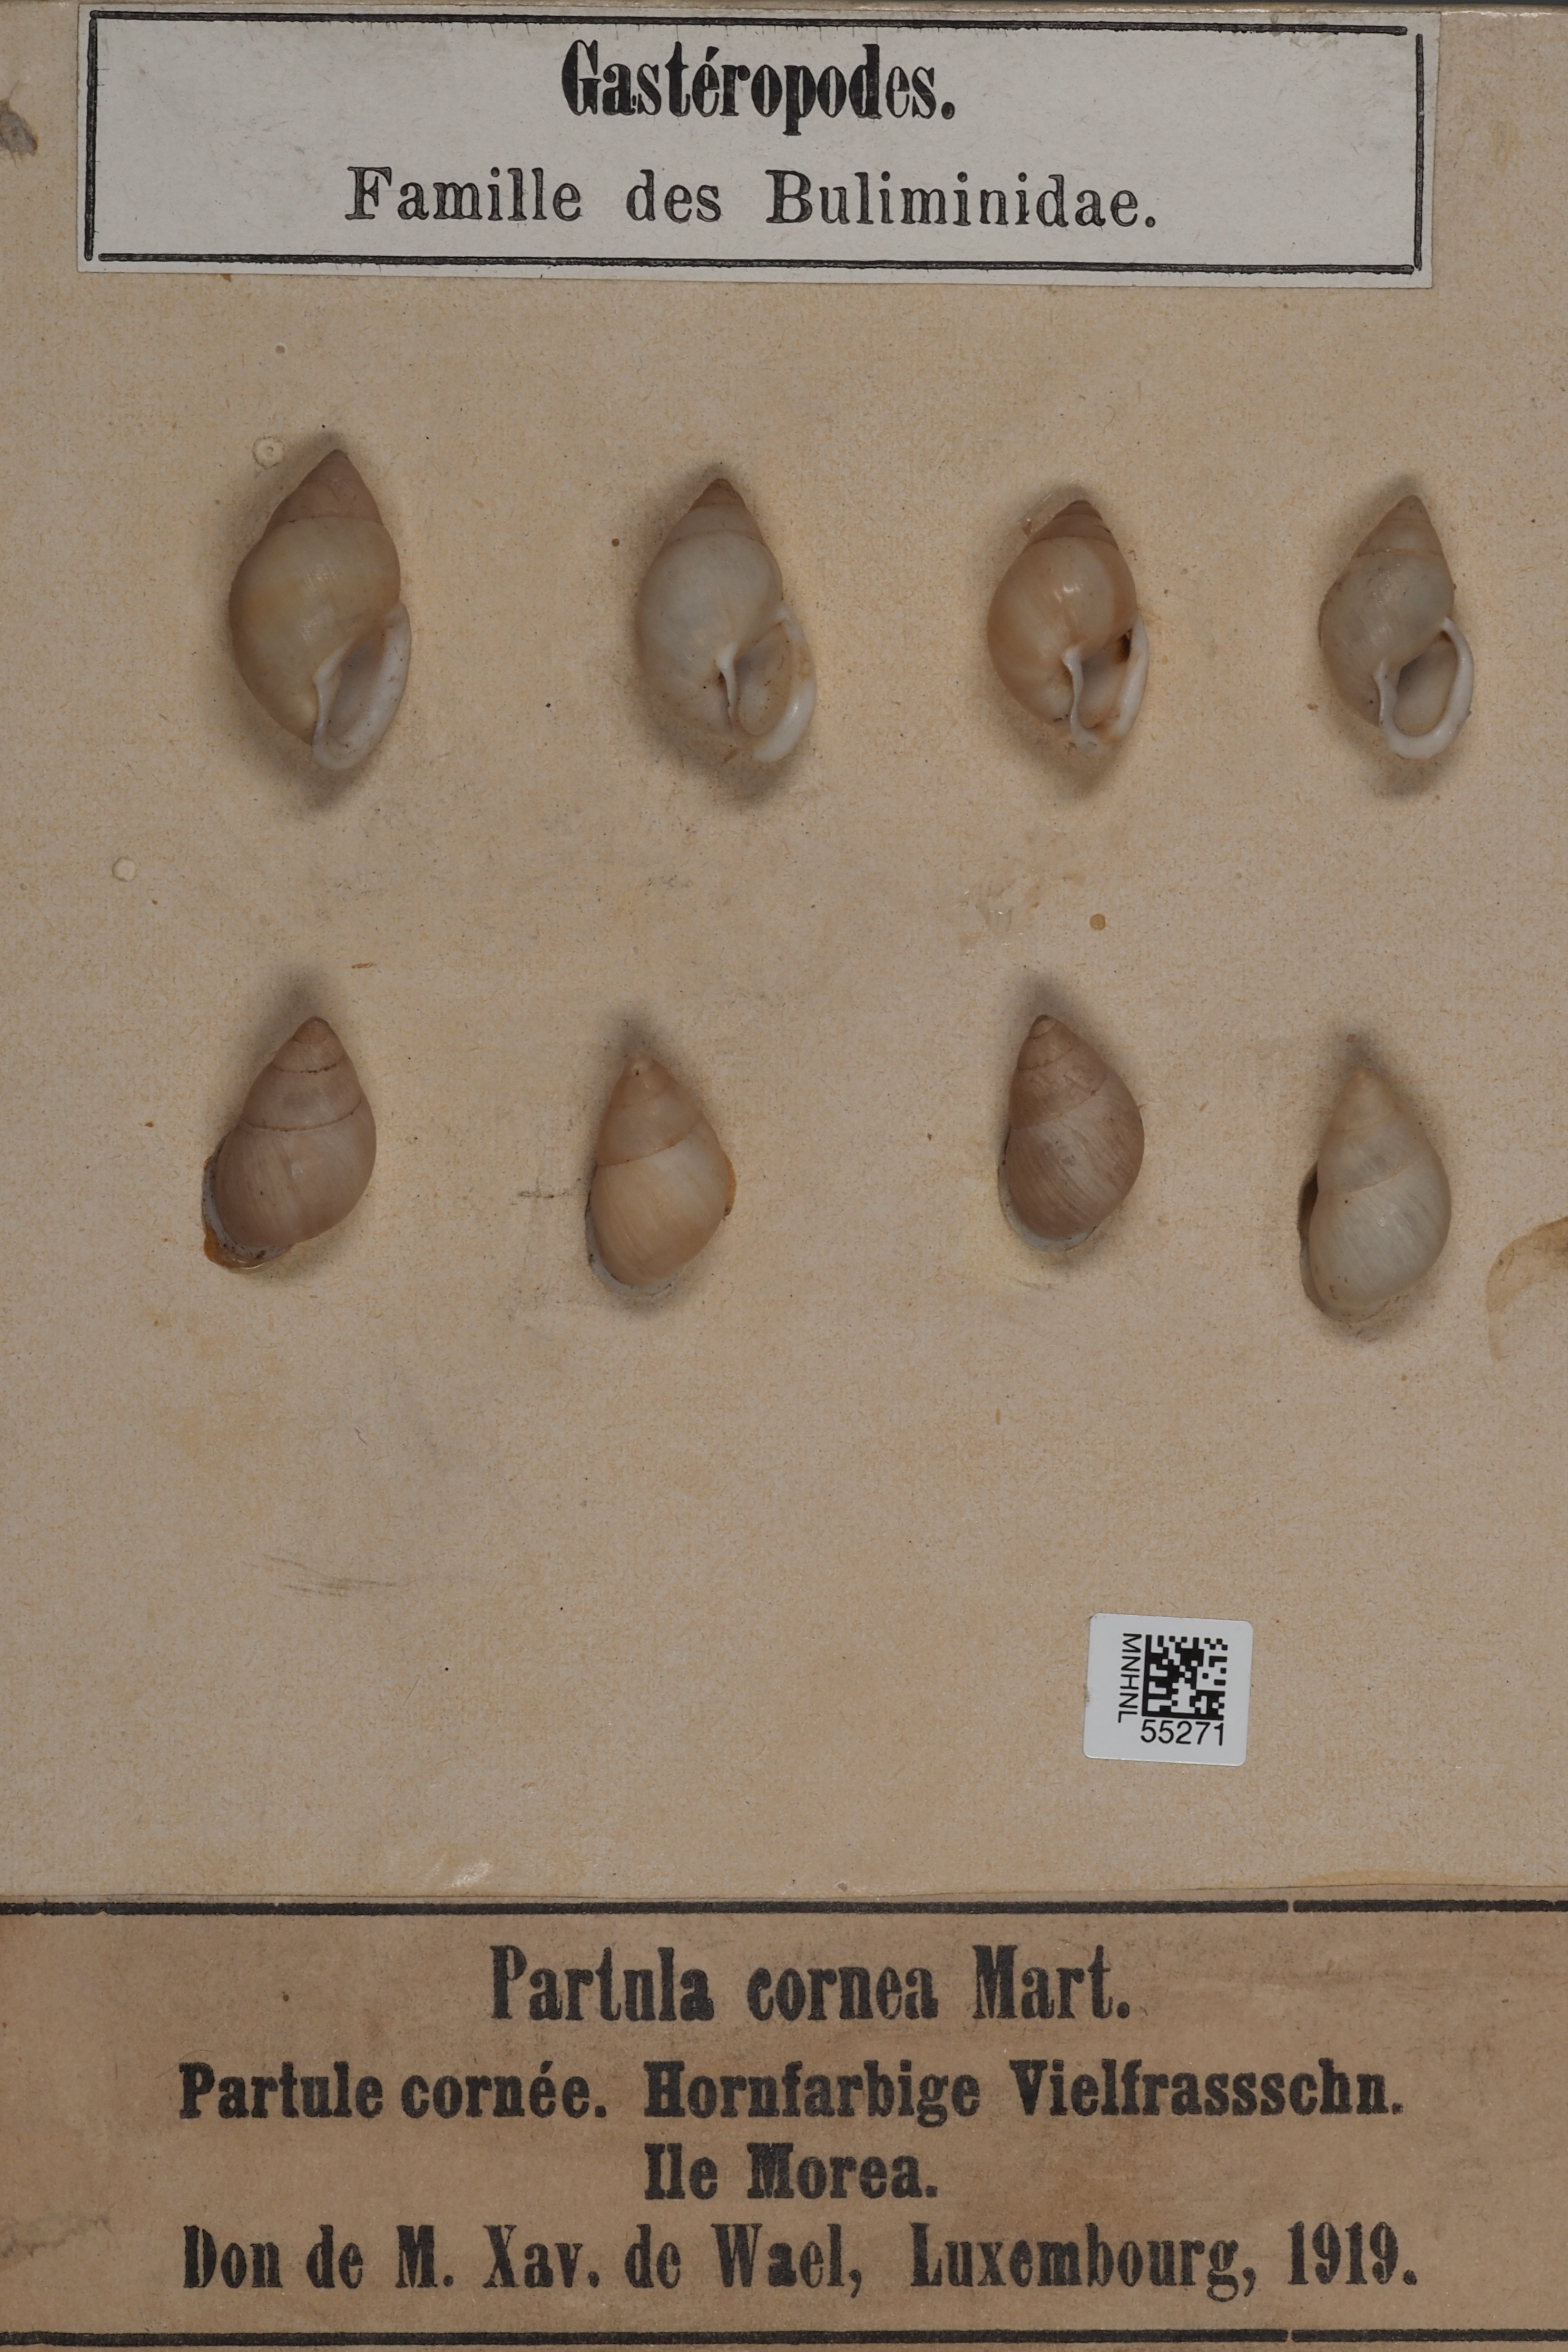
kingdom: Animalia
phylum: Mollusca
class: Gastropoda
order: Stylommatophora
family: Partulidae
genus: Partula
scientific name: Partula
